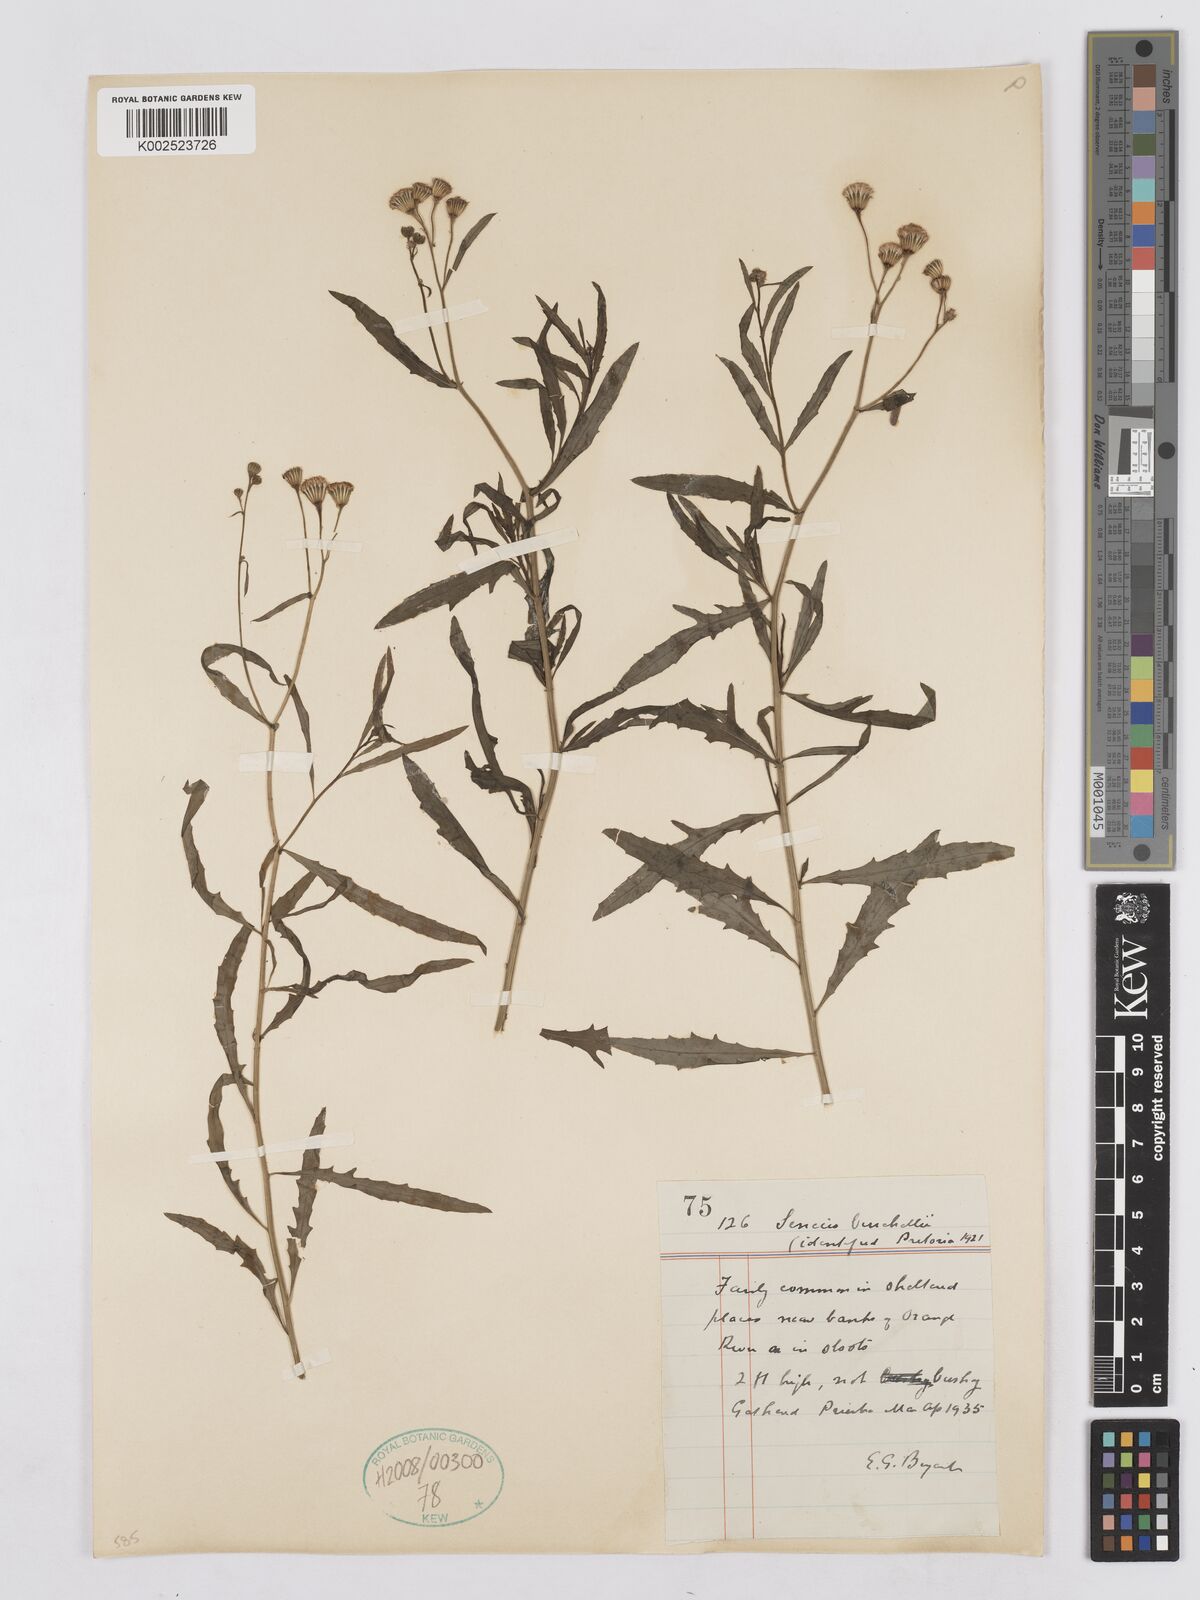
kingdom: Plantae
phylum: Tracheophyta
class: Magnoliopsida
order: Asterales
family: Asteraceae
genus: Senecio
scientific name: Senecio burchellii
